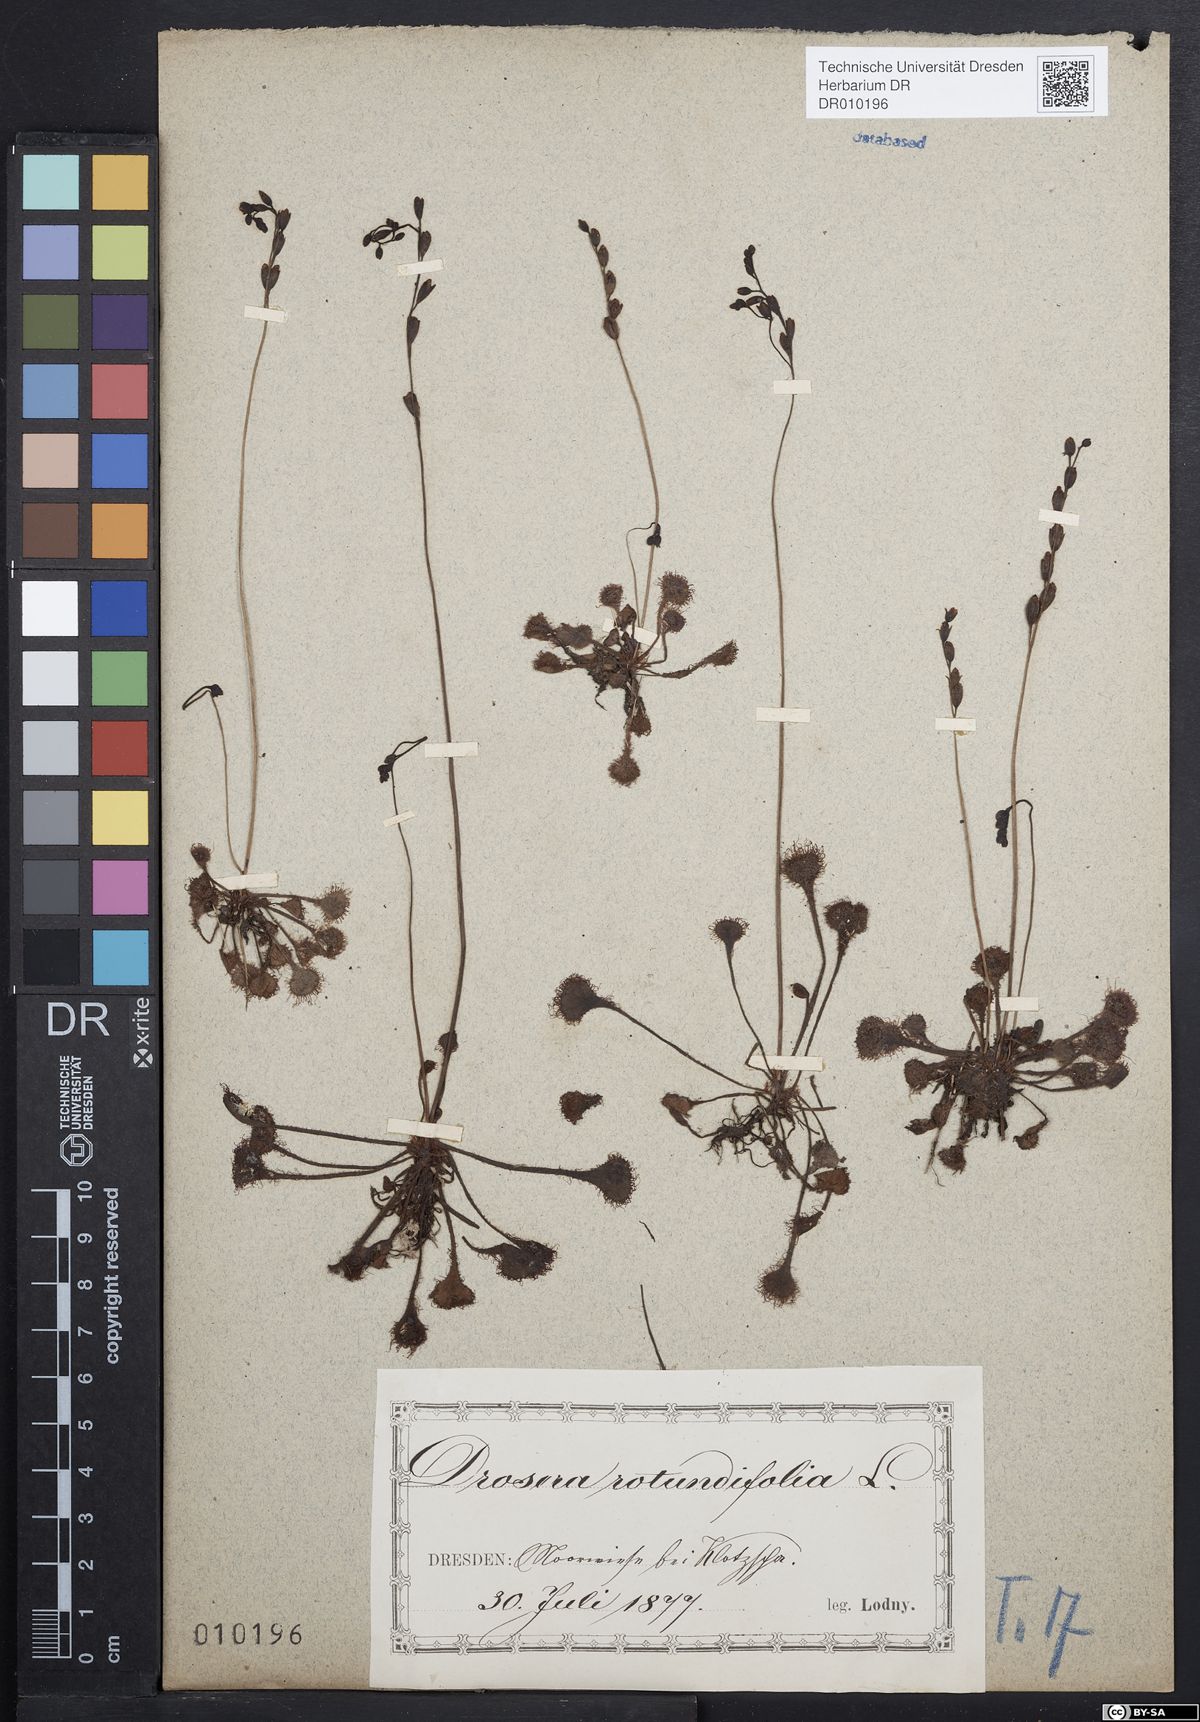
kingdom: Plantae
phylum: Tracheophyta
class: Magnoliopsida
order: Caryophyllales
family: Droseraceae
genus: Drosera
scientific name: Drosera rotundifolia
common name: Round-leaved sundew
